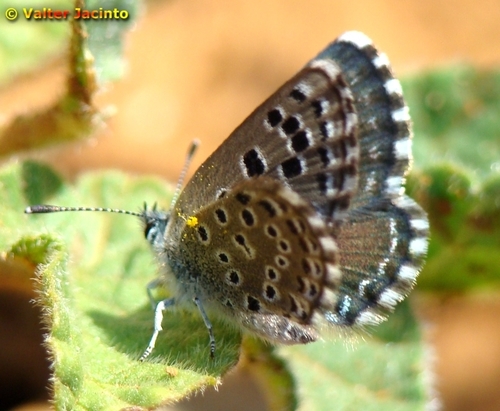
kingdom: Animalia
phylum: Arthropoda
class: Insecta
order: Lepidoptera
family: Lycaenidae
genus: Pseudophilotes
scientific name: Pseudophilotes abencerragus
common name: False baton blue
